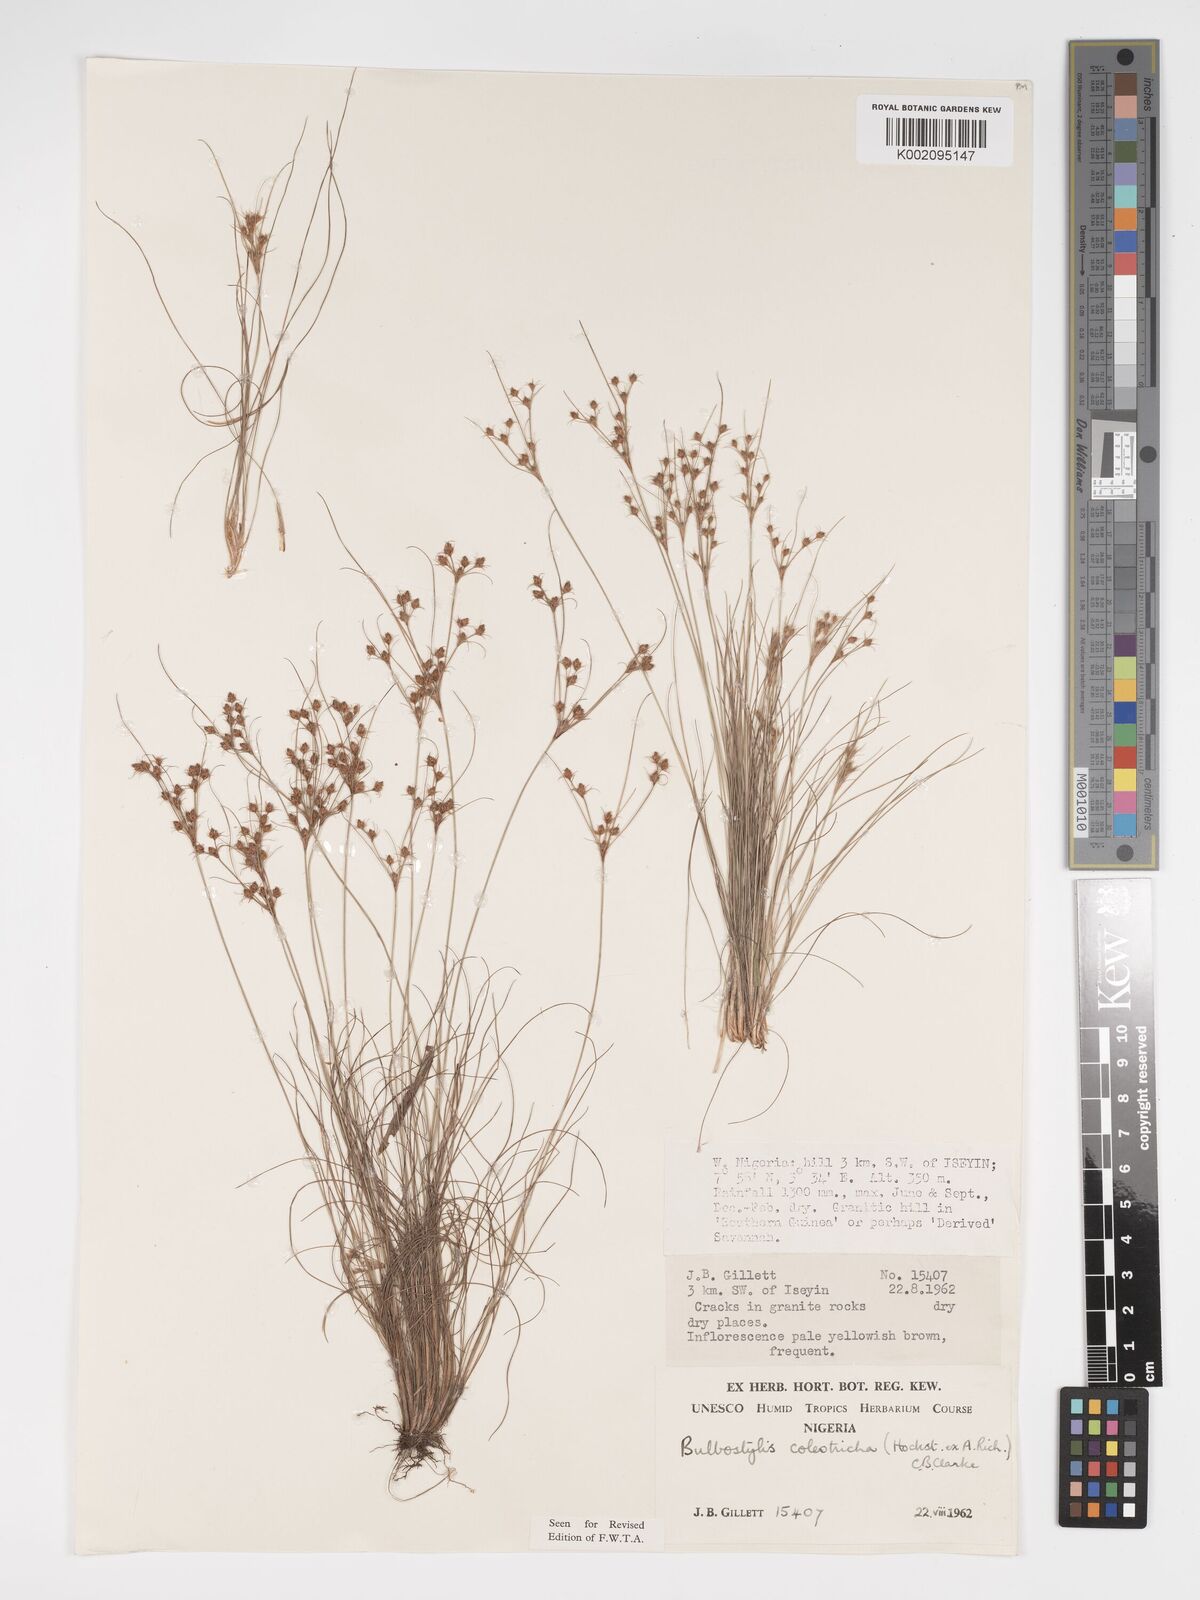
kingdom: Plantae
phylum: Tracheophyta
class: Liliopsida
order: Poales
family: Cyperaceae
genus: Bulbostylis
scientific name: Bulbostylis coleotricha
